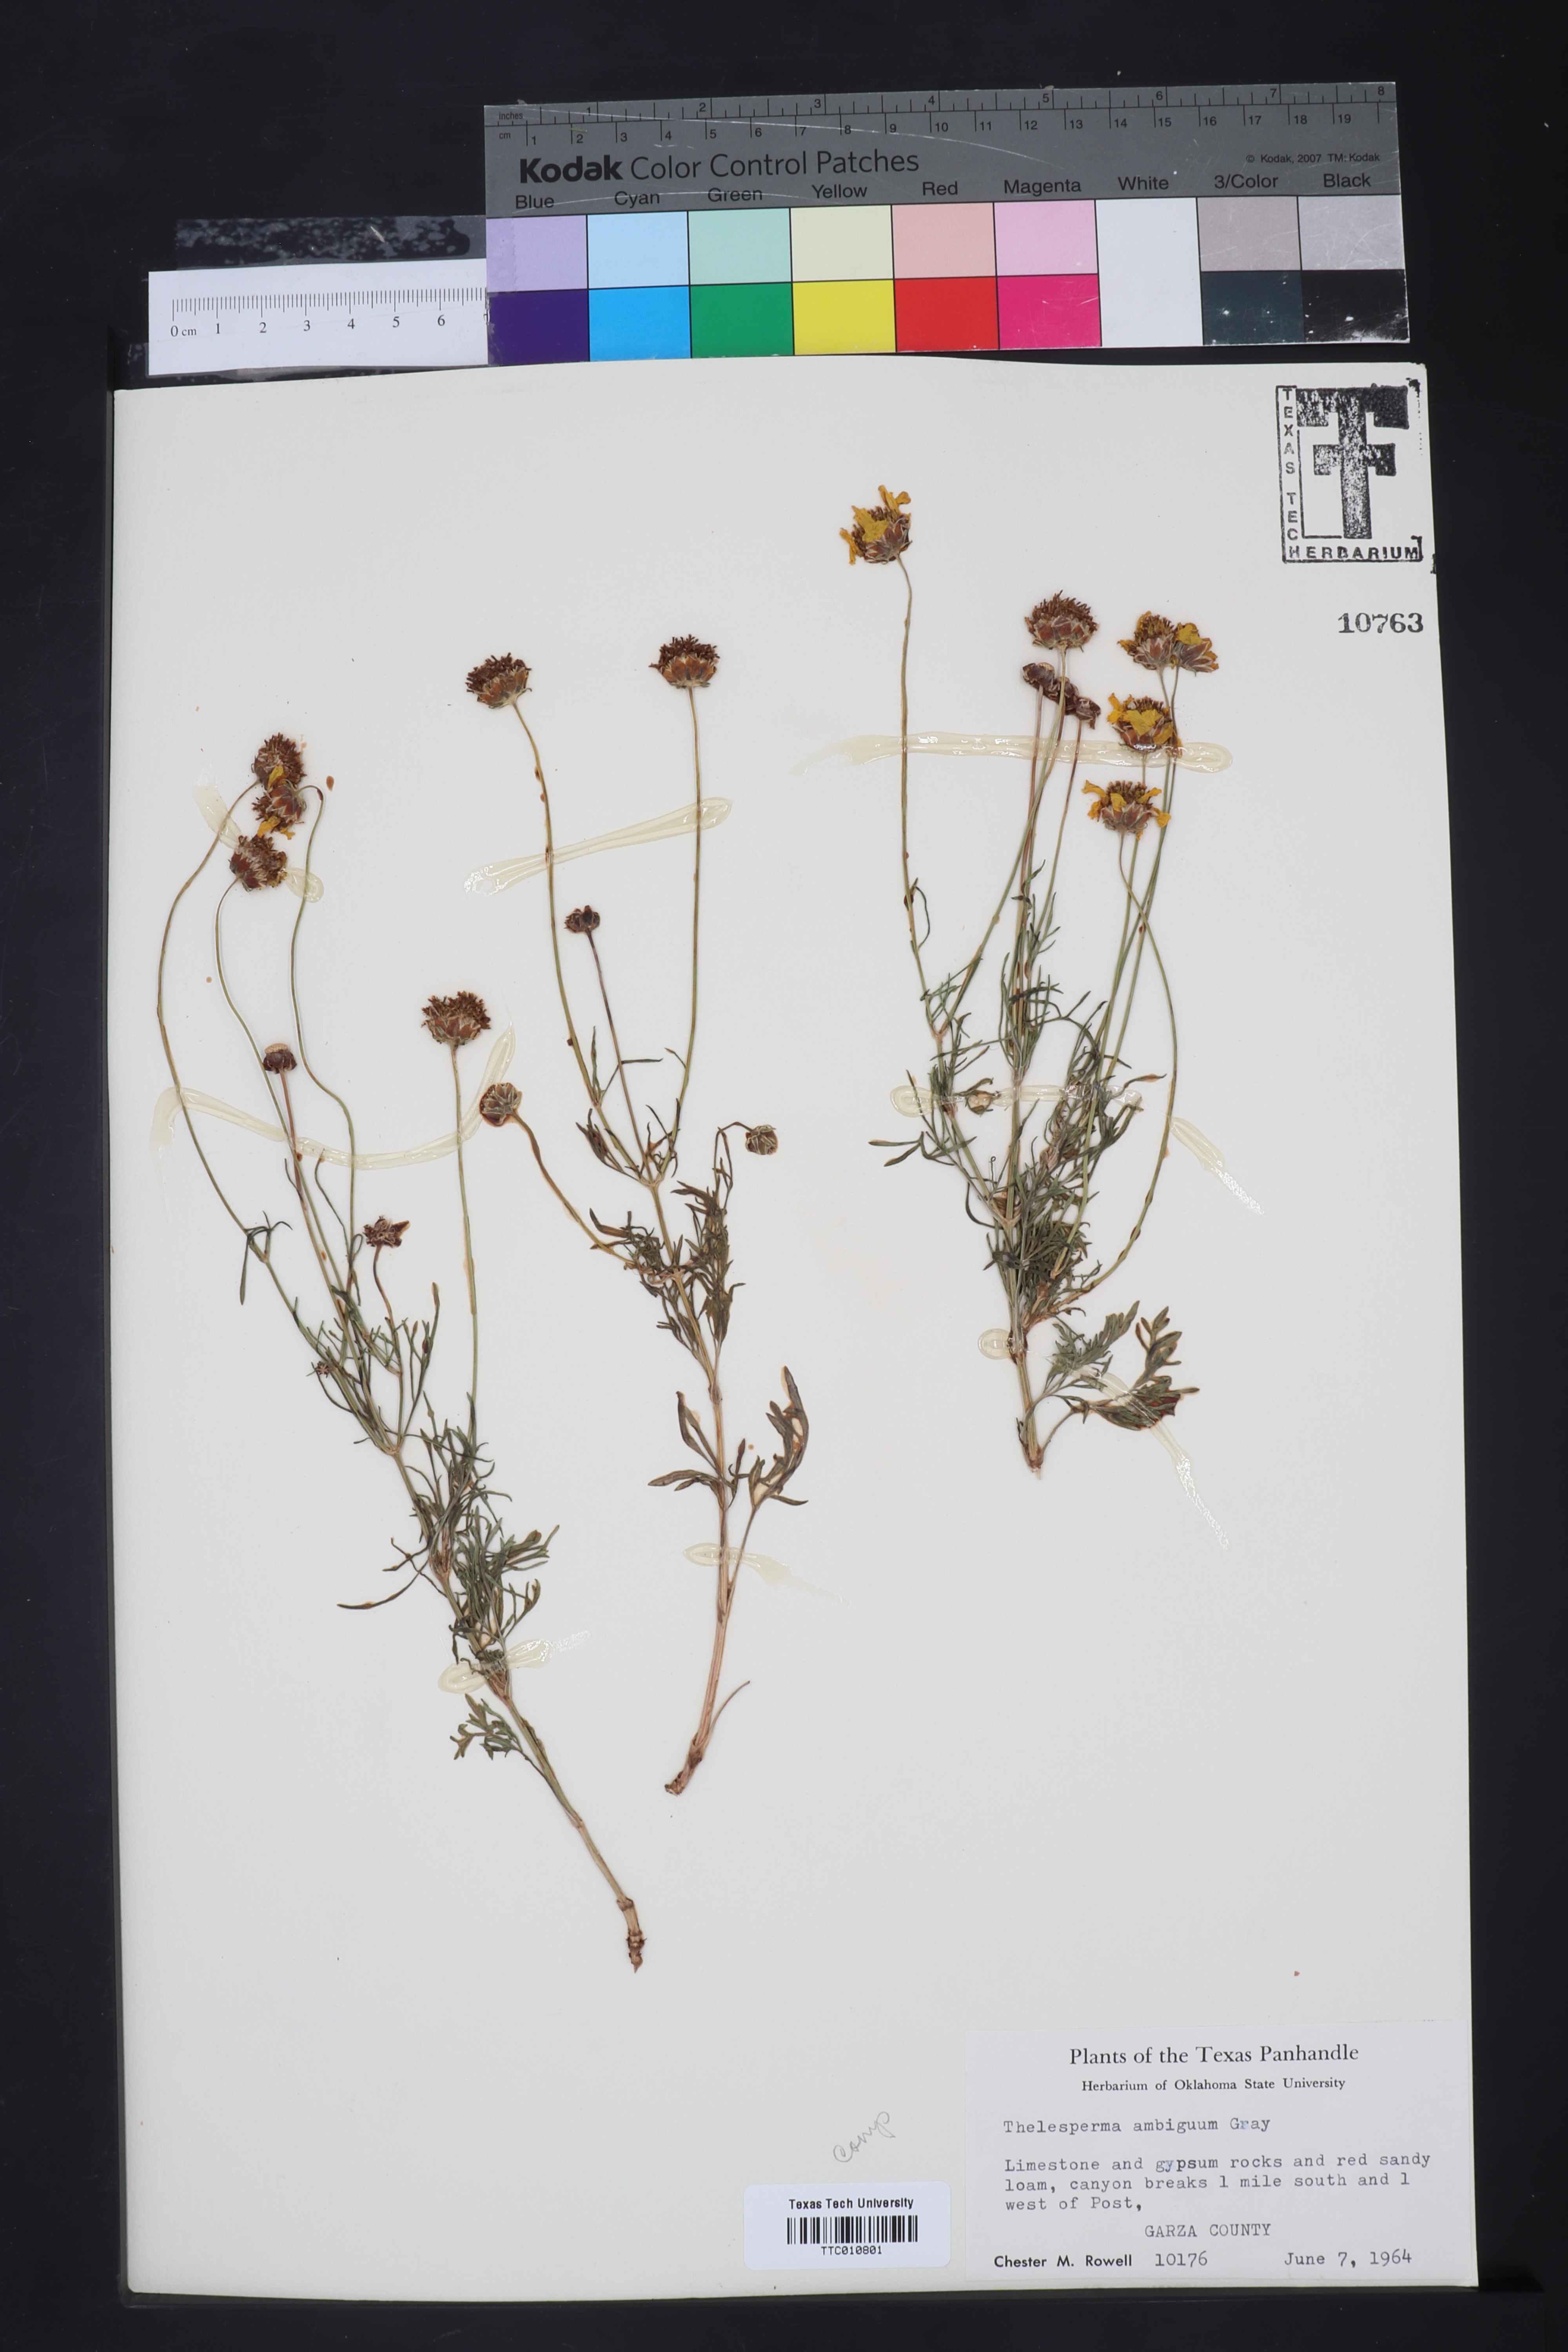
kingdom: Plantae
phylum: Tracheophyta
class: Magnoliopsida
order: Asterales
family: Asteraceae
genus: Thelesperma
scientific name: Thelesperma ambiguum
